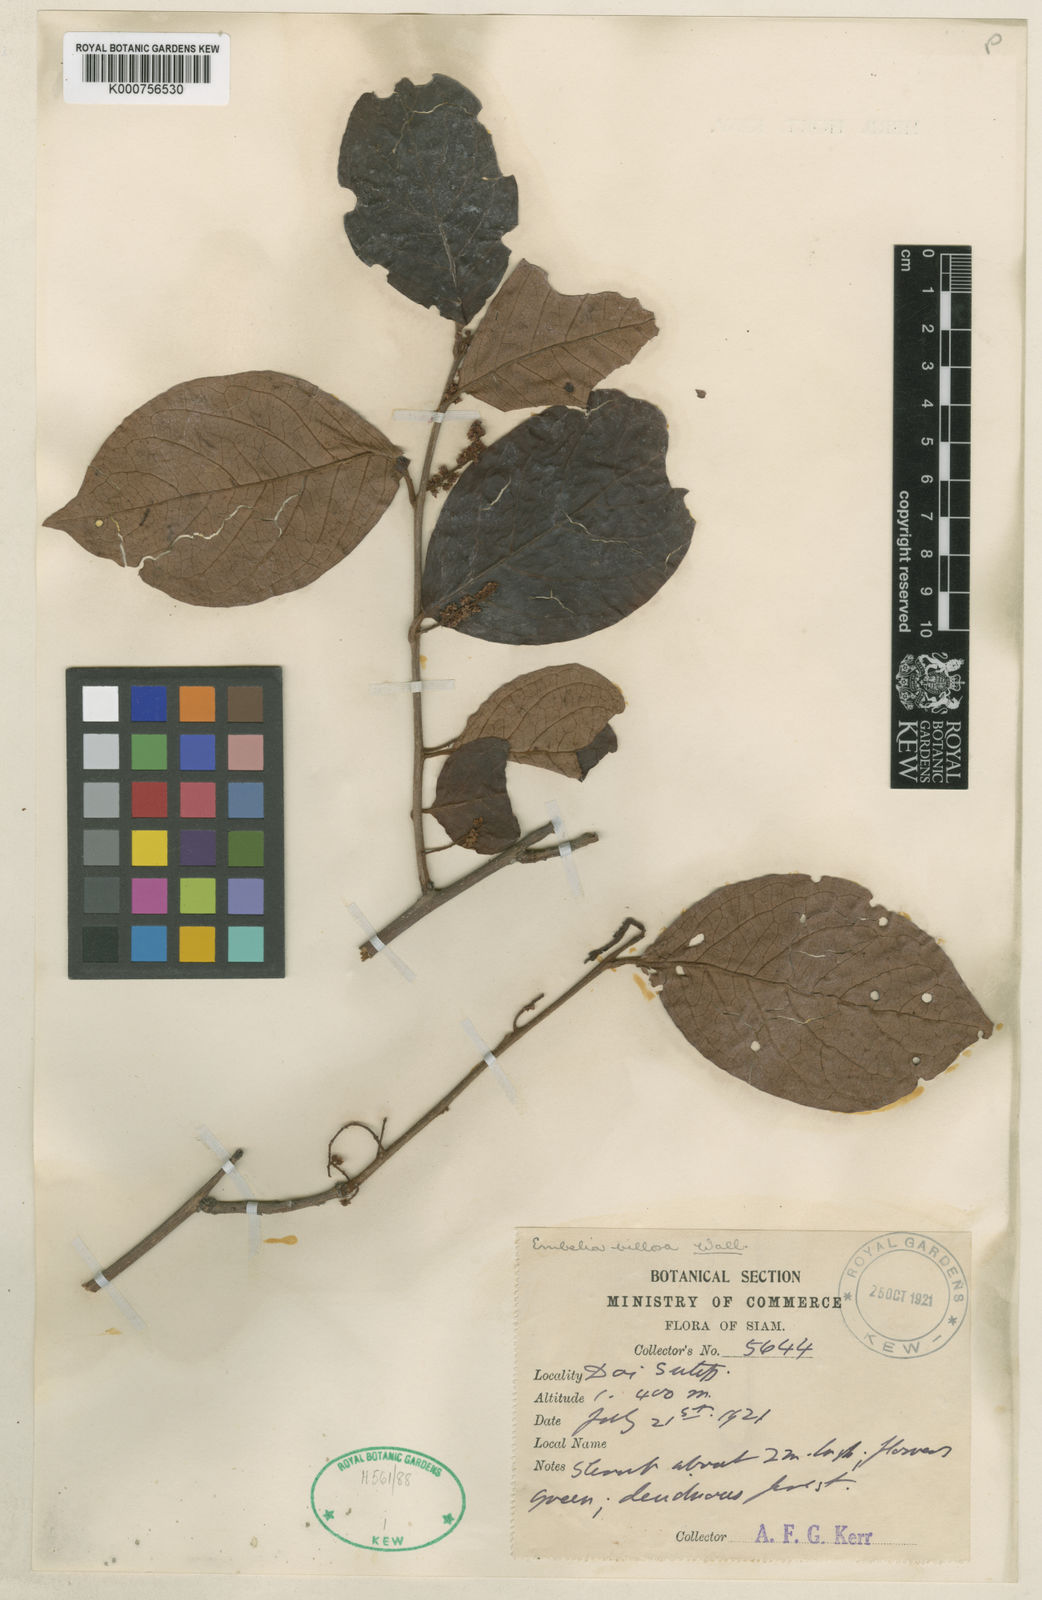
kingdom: Plantae
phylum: Tracheophyta
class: Magnoliopsida
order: Ericales
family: Primulaceae
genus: Embelia
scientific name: Embelia tsjeriam-cottam
